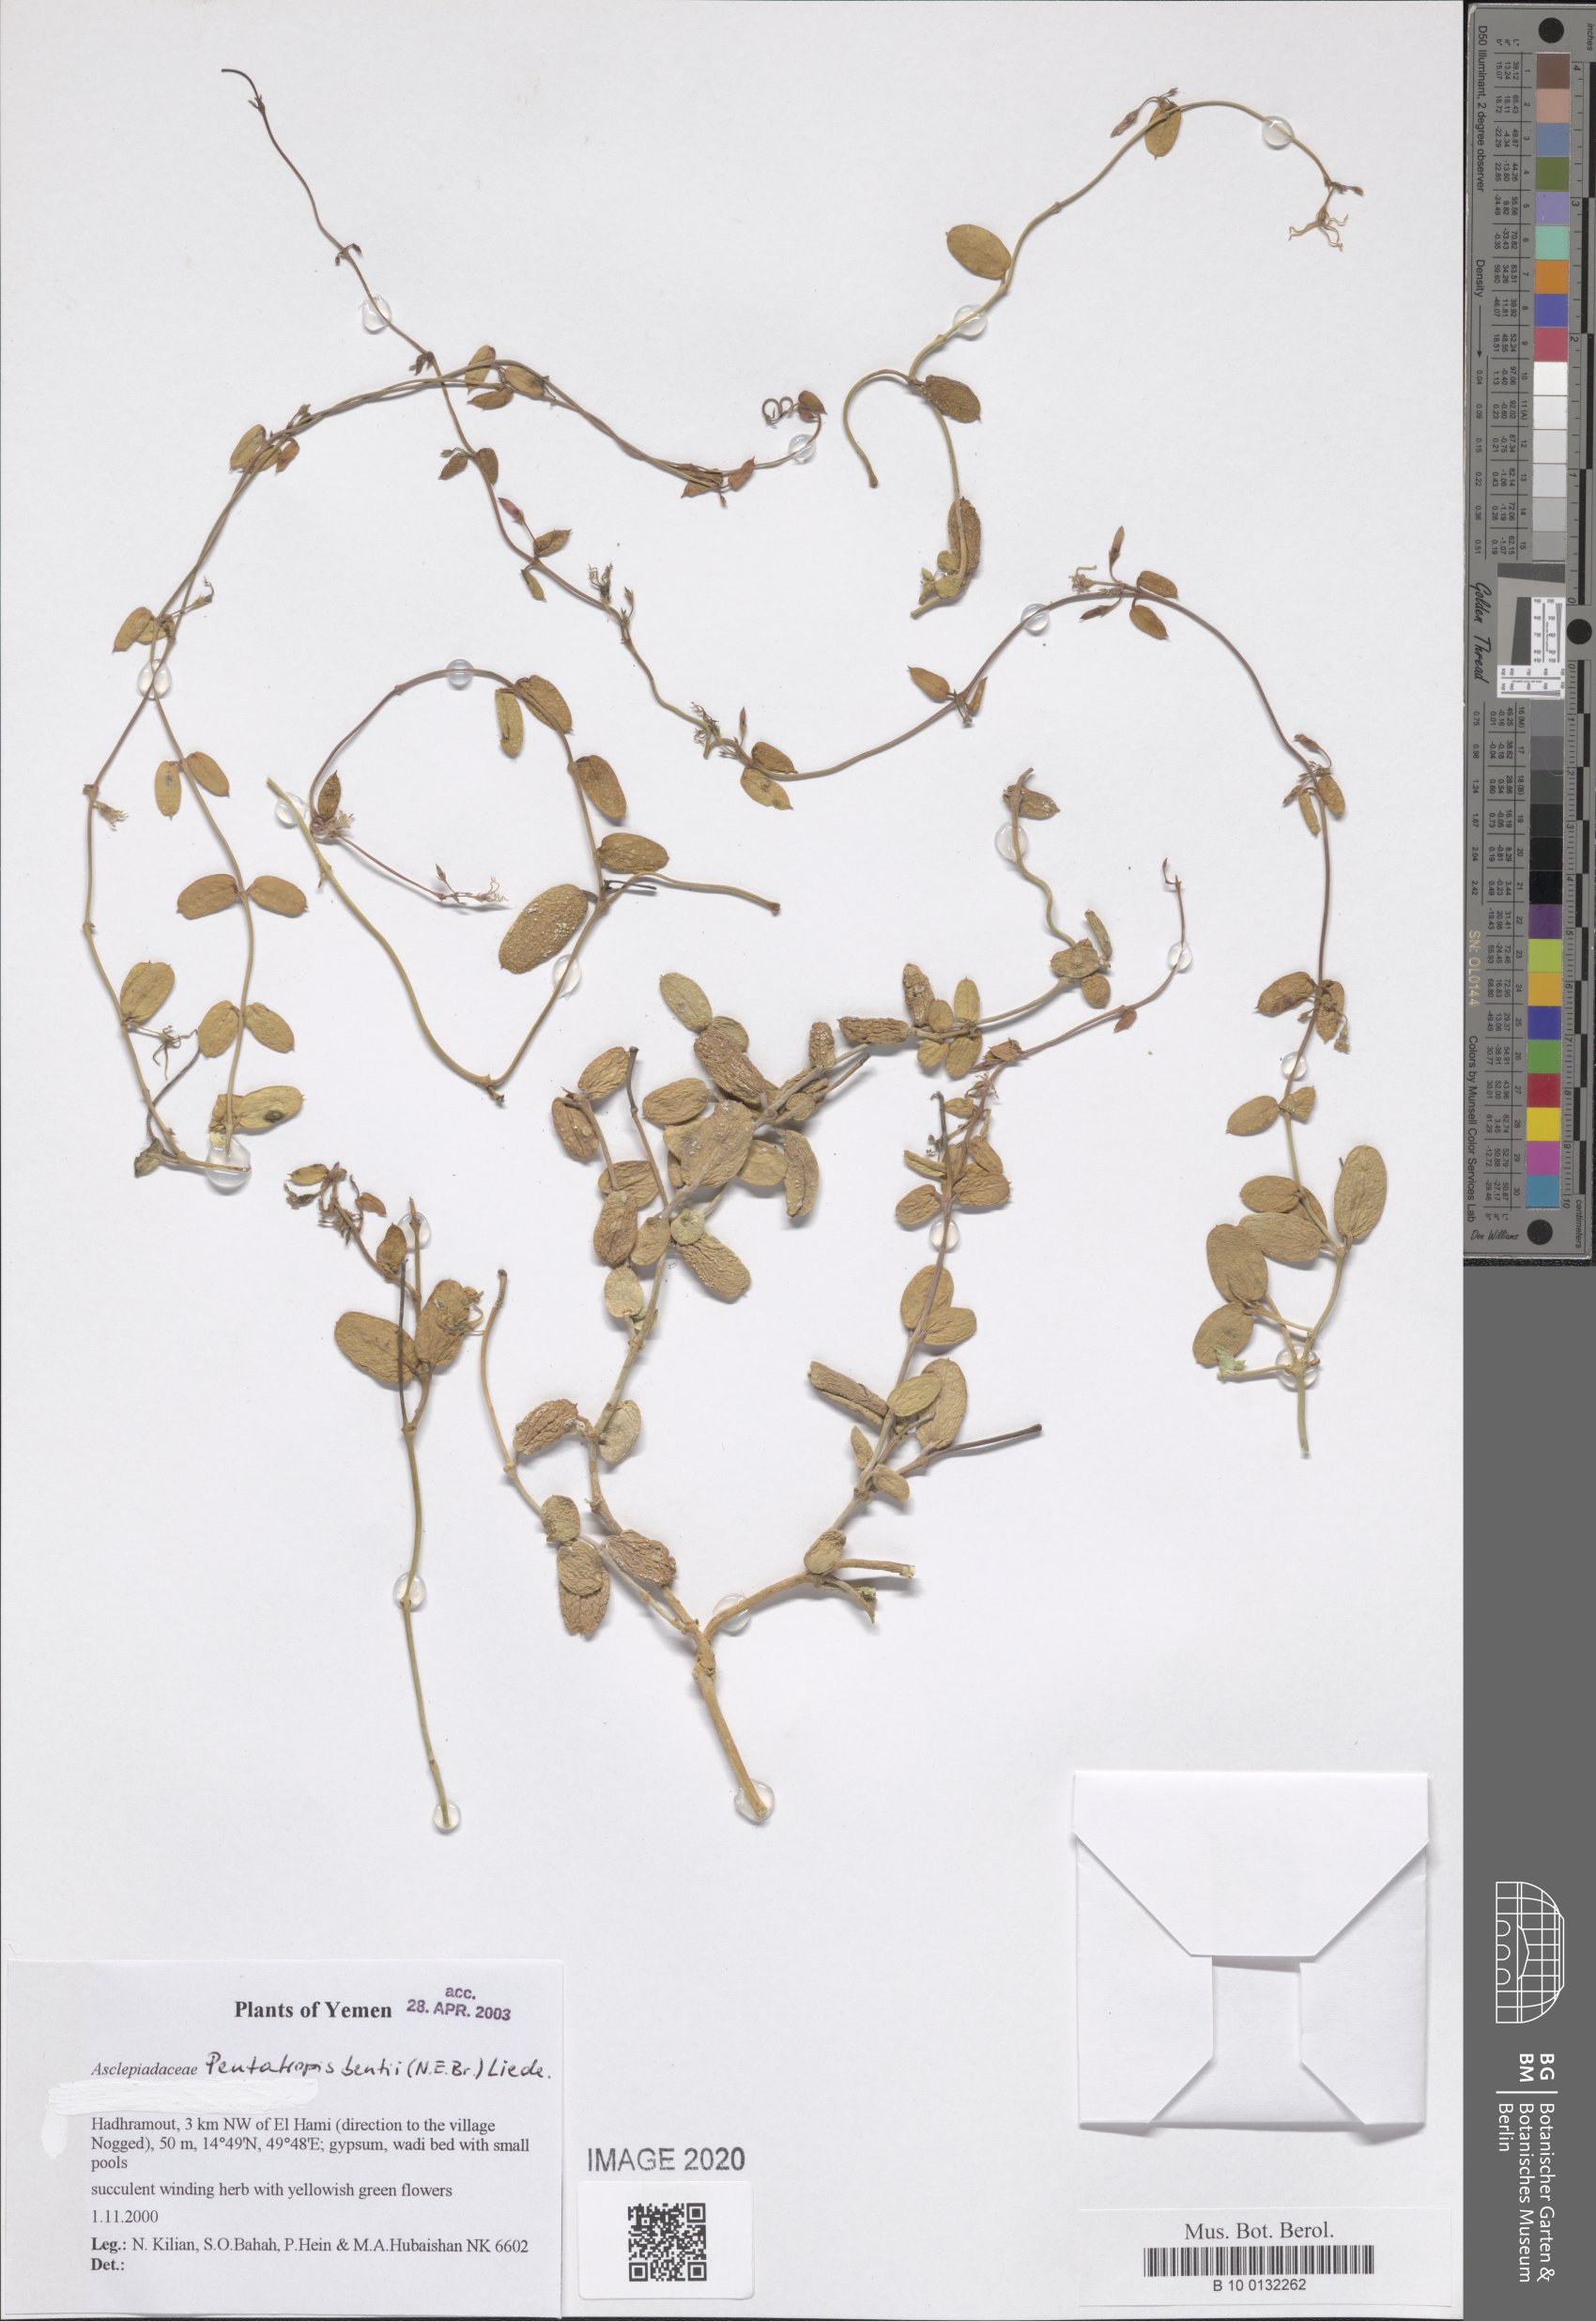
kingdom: Plantae
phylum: Tracheophyta
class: Magnoliopsida
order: Gentianales
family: Apocynaceae
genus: Pentatropis
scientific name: Pentatropis bentii
